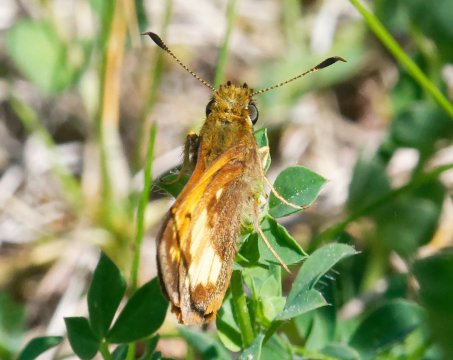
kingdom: Animalia
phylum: Arthropoda
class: Insecta
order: Lepidoptera
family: Hesperiidae
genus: Lon
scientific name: Lon hobomok
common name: Hobomok Skipper
